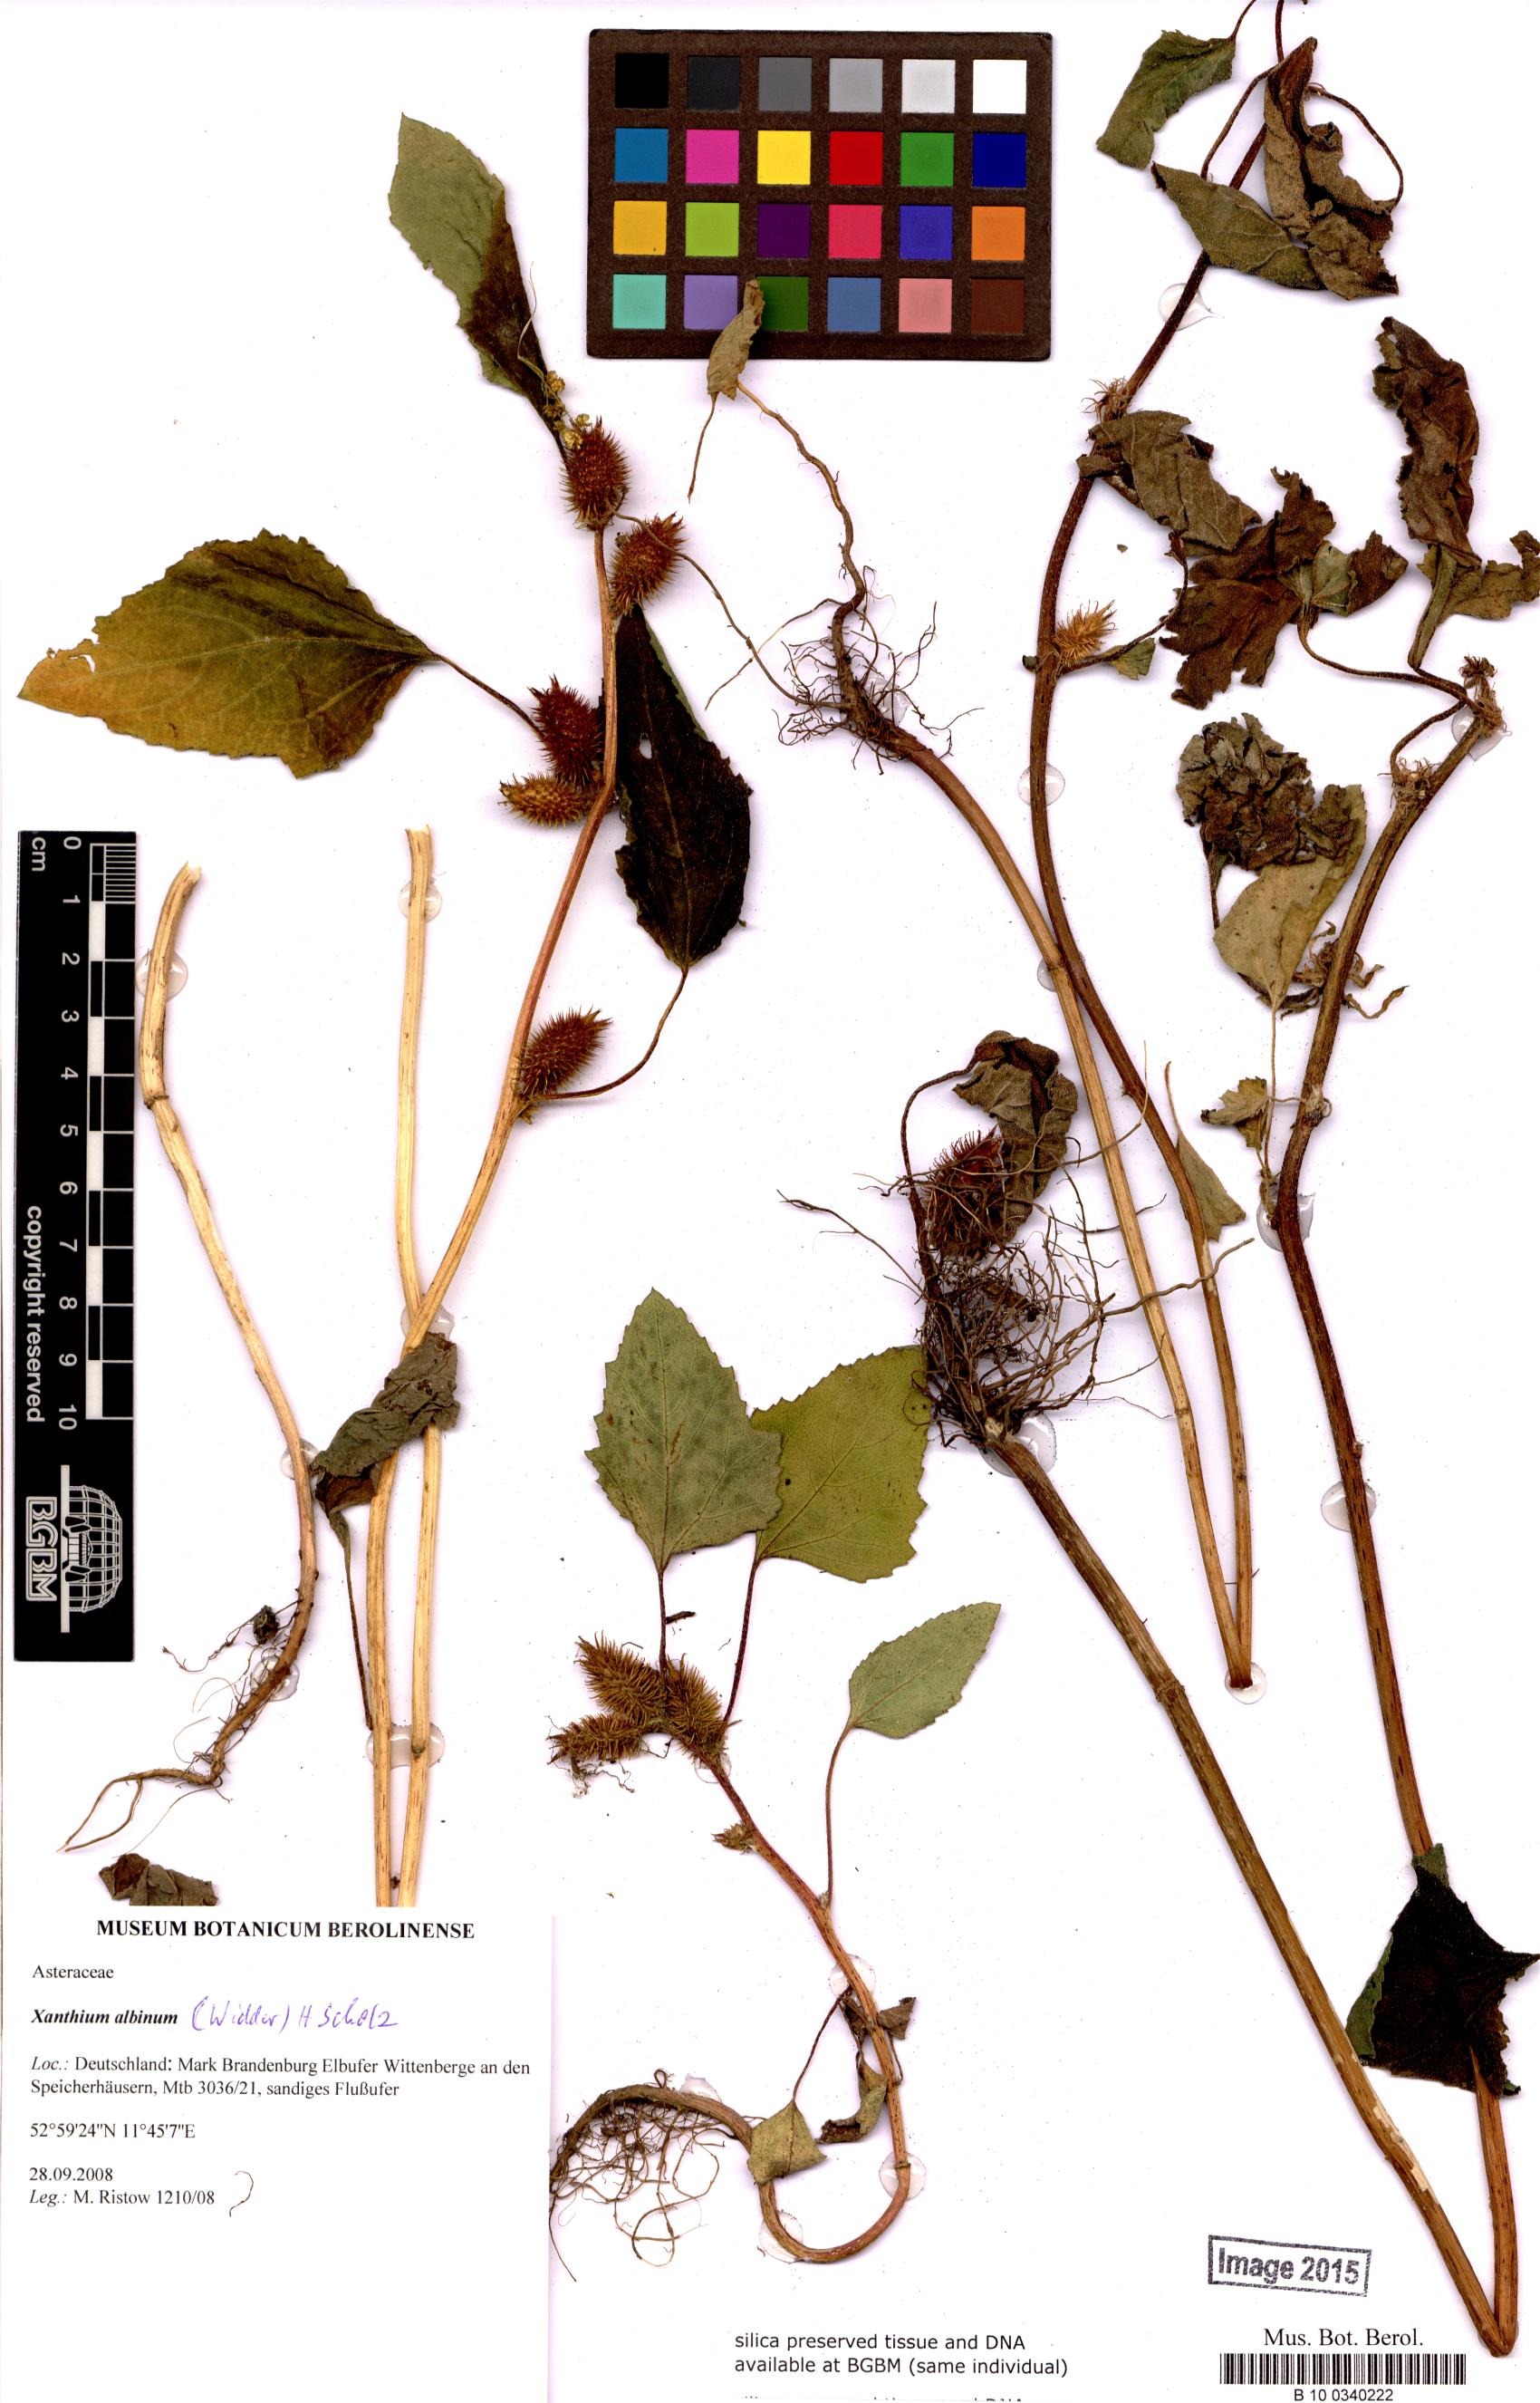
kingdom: Plantae
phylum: Tracheophyta
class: Magnoliopsida
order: Asterales
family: Asteraceae
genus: Xanthium
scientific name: Xanthium orientale
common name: Californian burr
